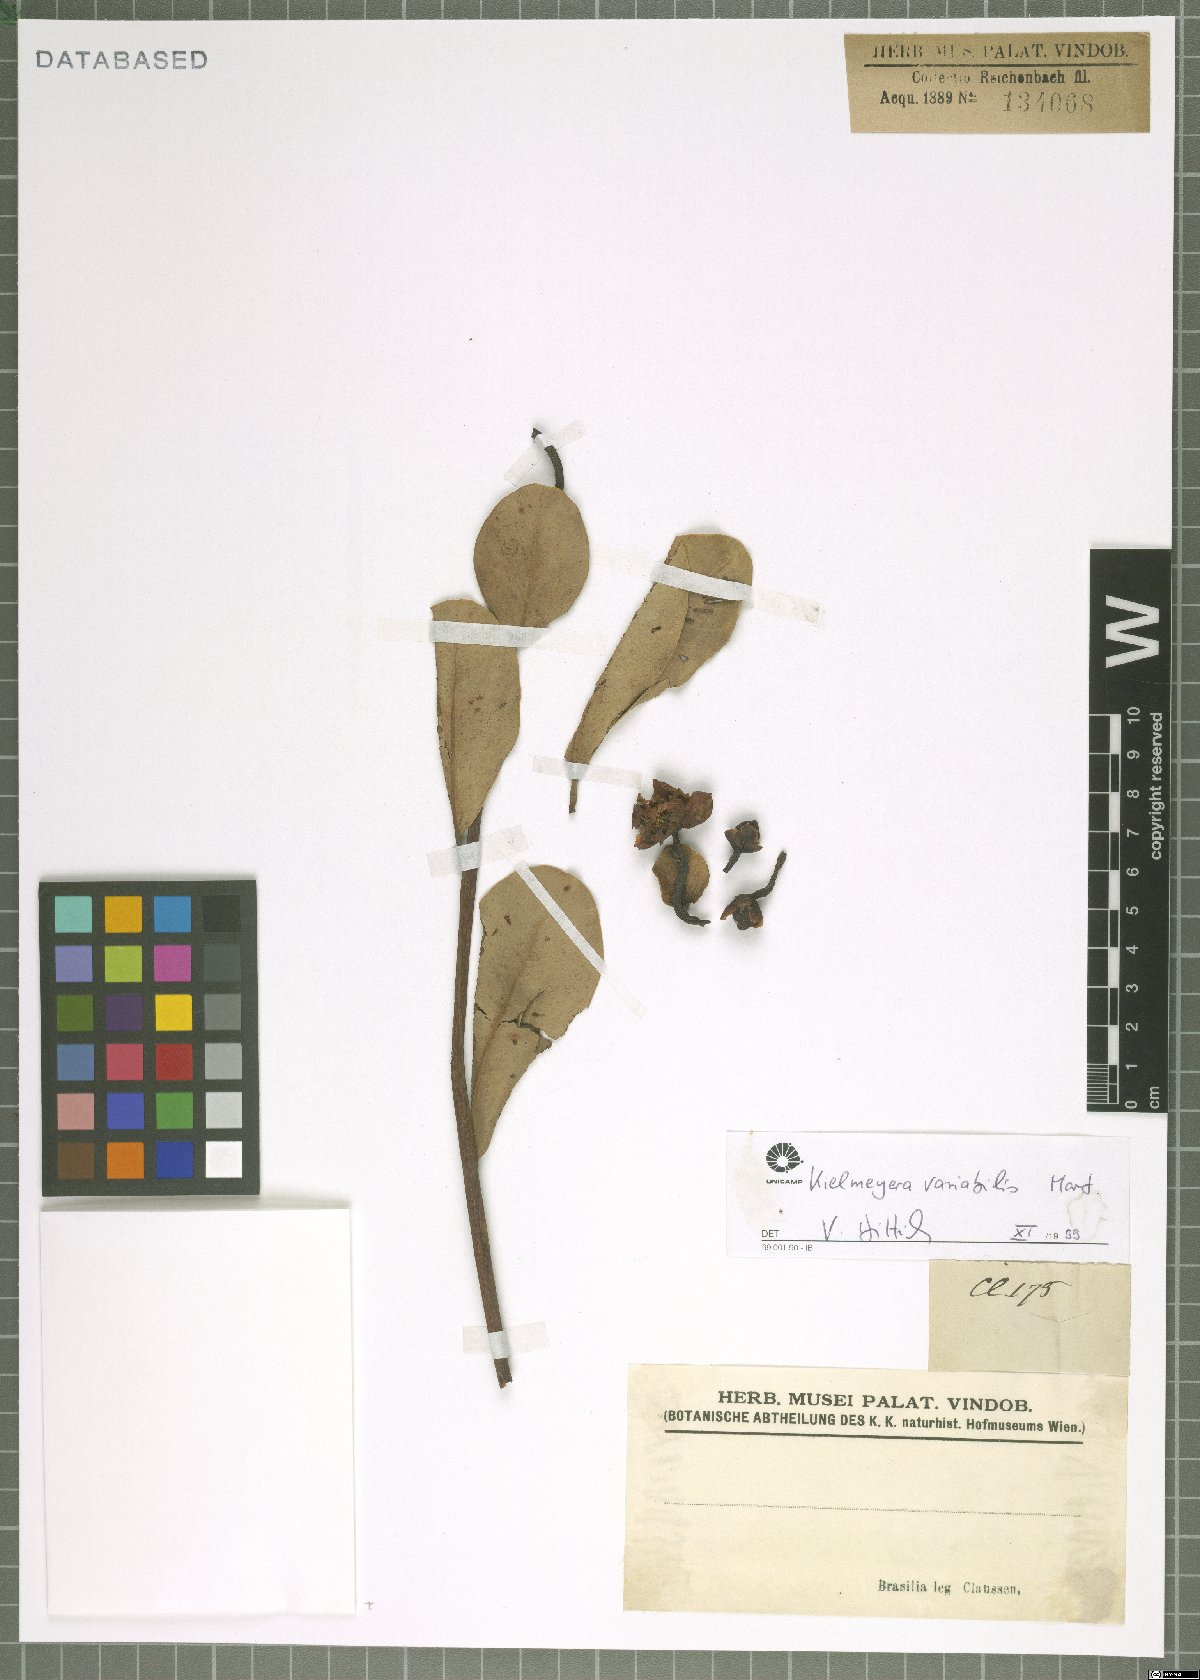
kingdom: Plantae
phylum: Tracheophyta
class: Magnoliopsida
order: Malpighiales
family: Calophyllaceae
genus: Kielmeyera
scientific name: Kielmeyera variabilis
